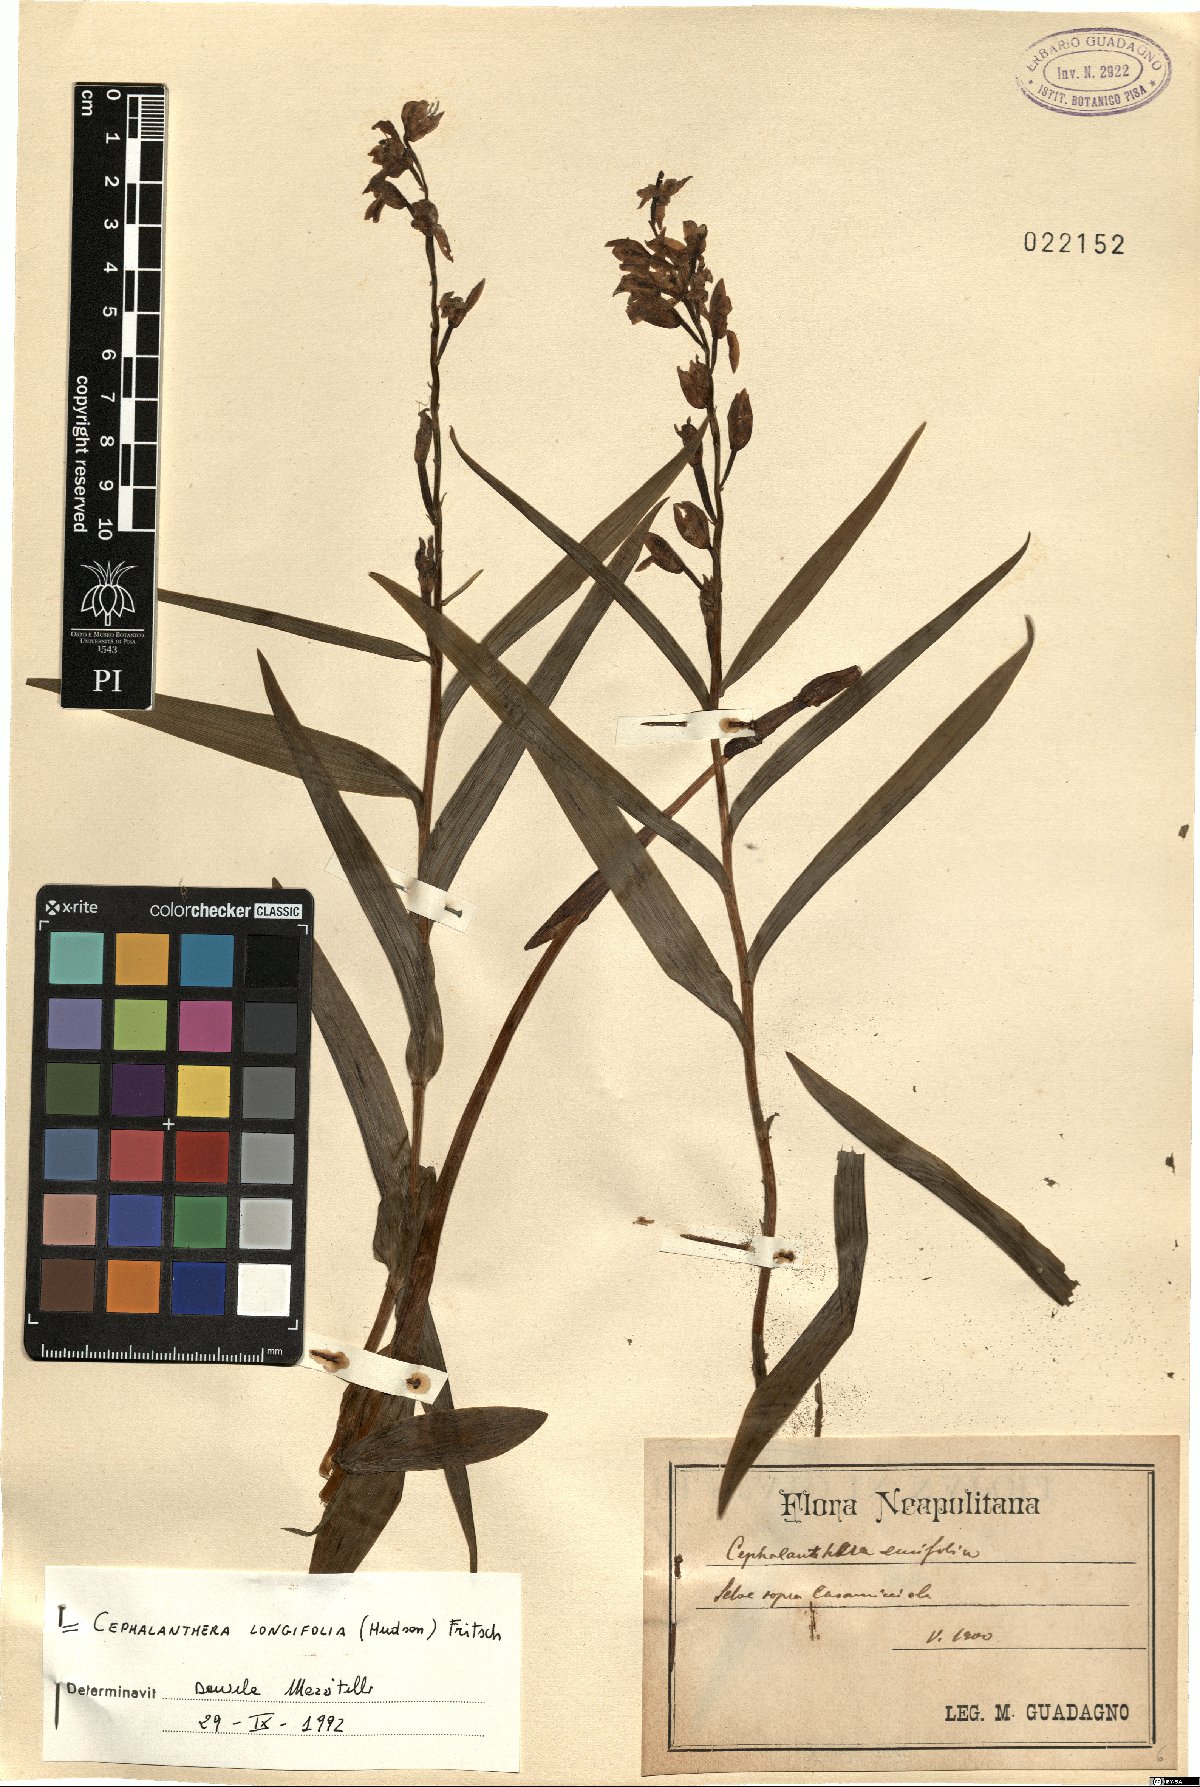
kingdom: Plantae
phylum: Tracheophyta
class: Liliopsida
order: Asparagales
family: Orchidaceae
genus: Cephalanthera
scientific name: Cephalanthera longifolia
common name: Narrow-leaved helleborine
